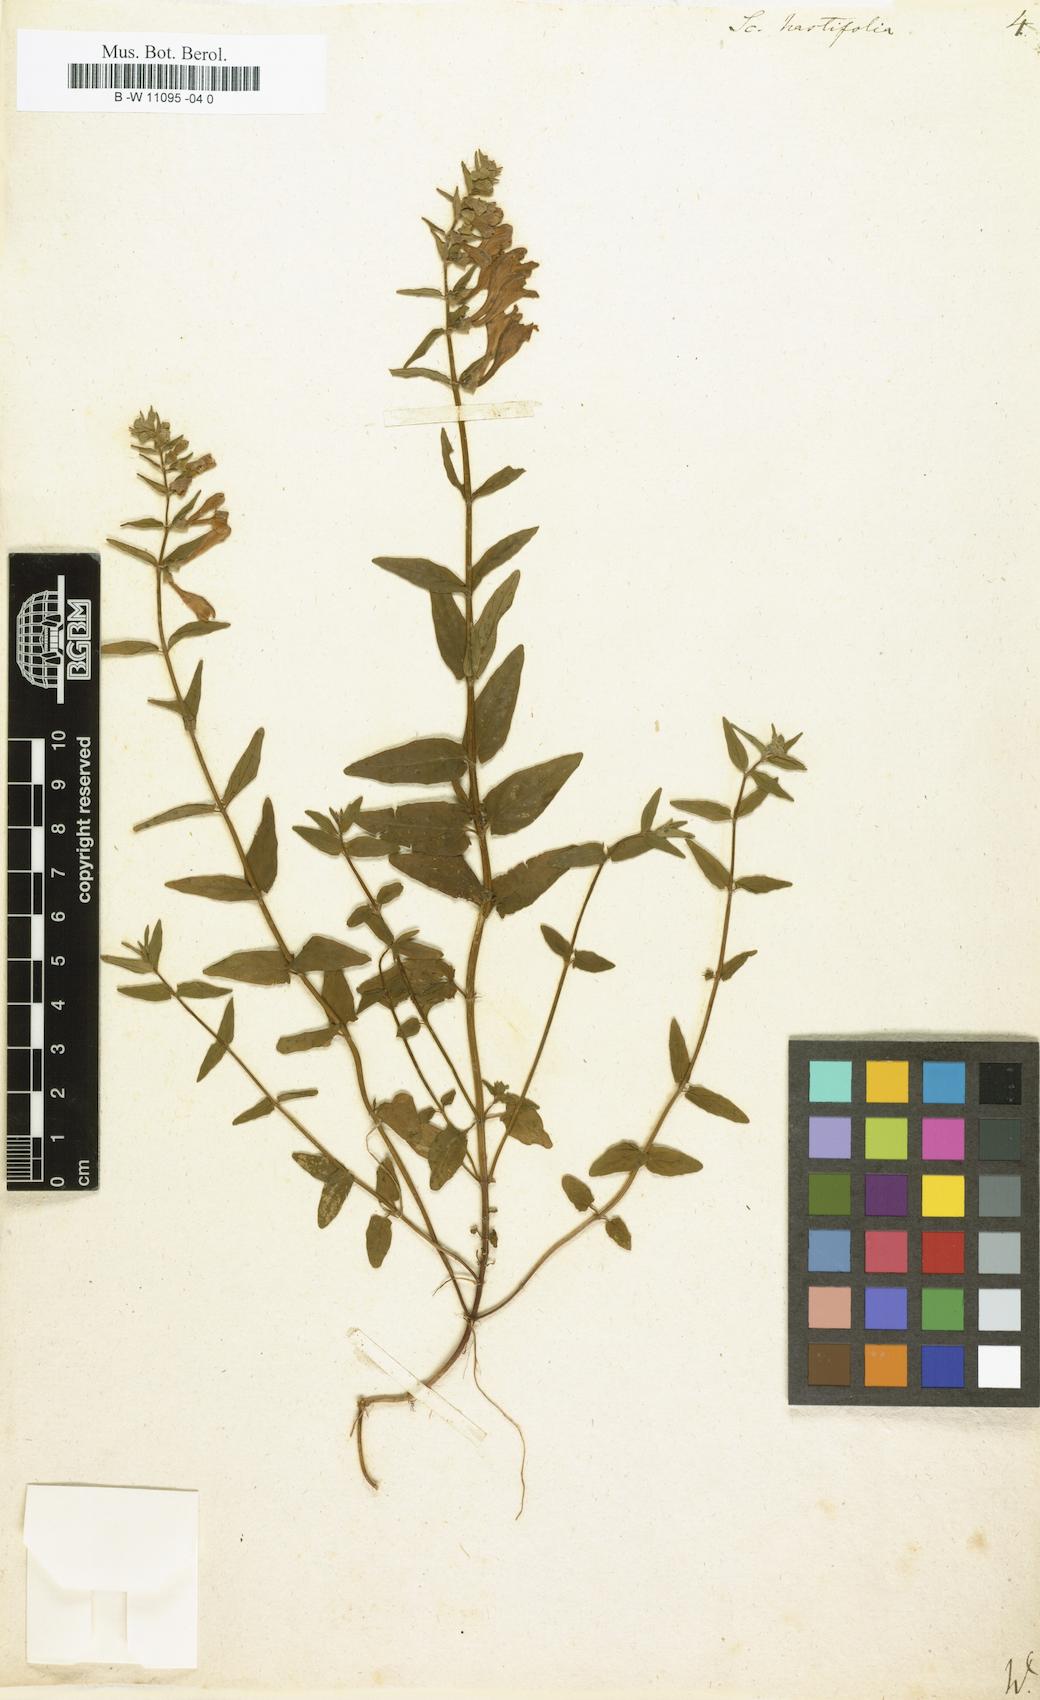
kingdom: Plantae
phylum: Tracheophyta
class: Magnoliopsida
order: Lamiales
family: Lamiaceae
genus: Scutellaria
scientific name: Scutellaria hastifolia
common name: Norfolk skullcap
